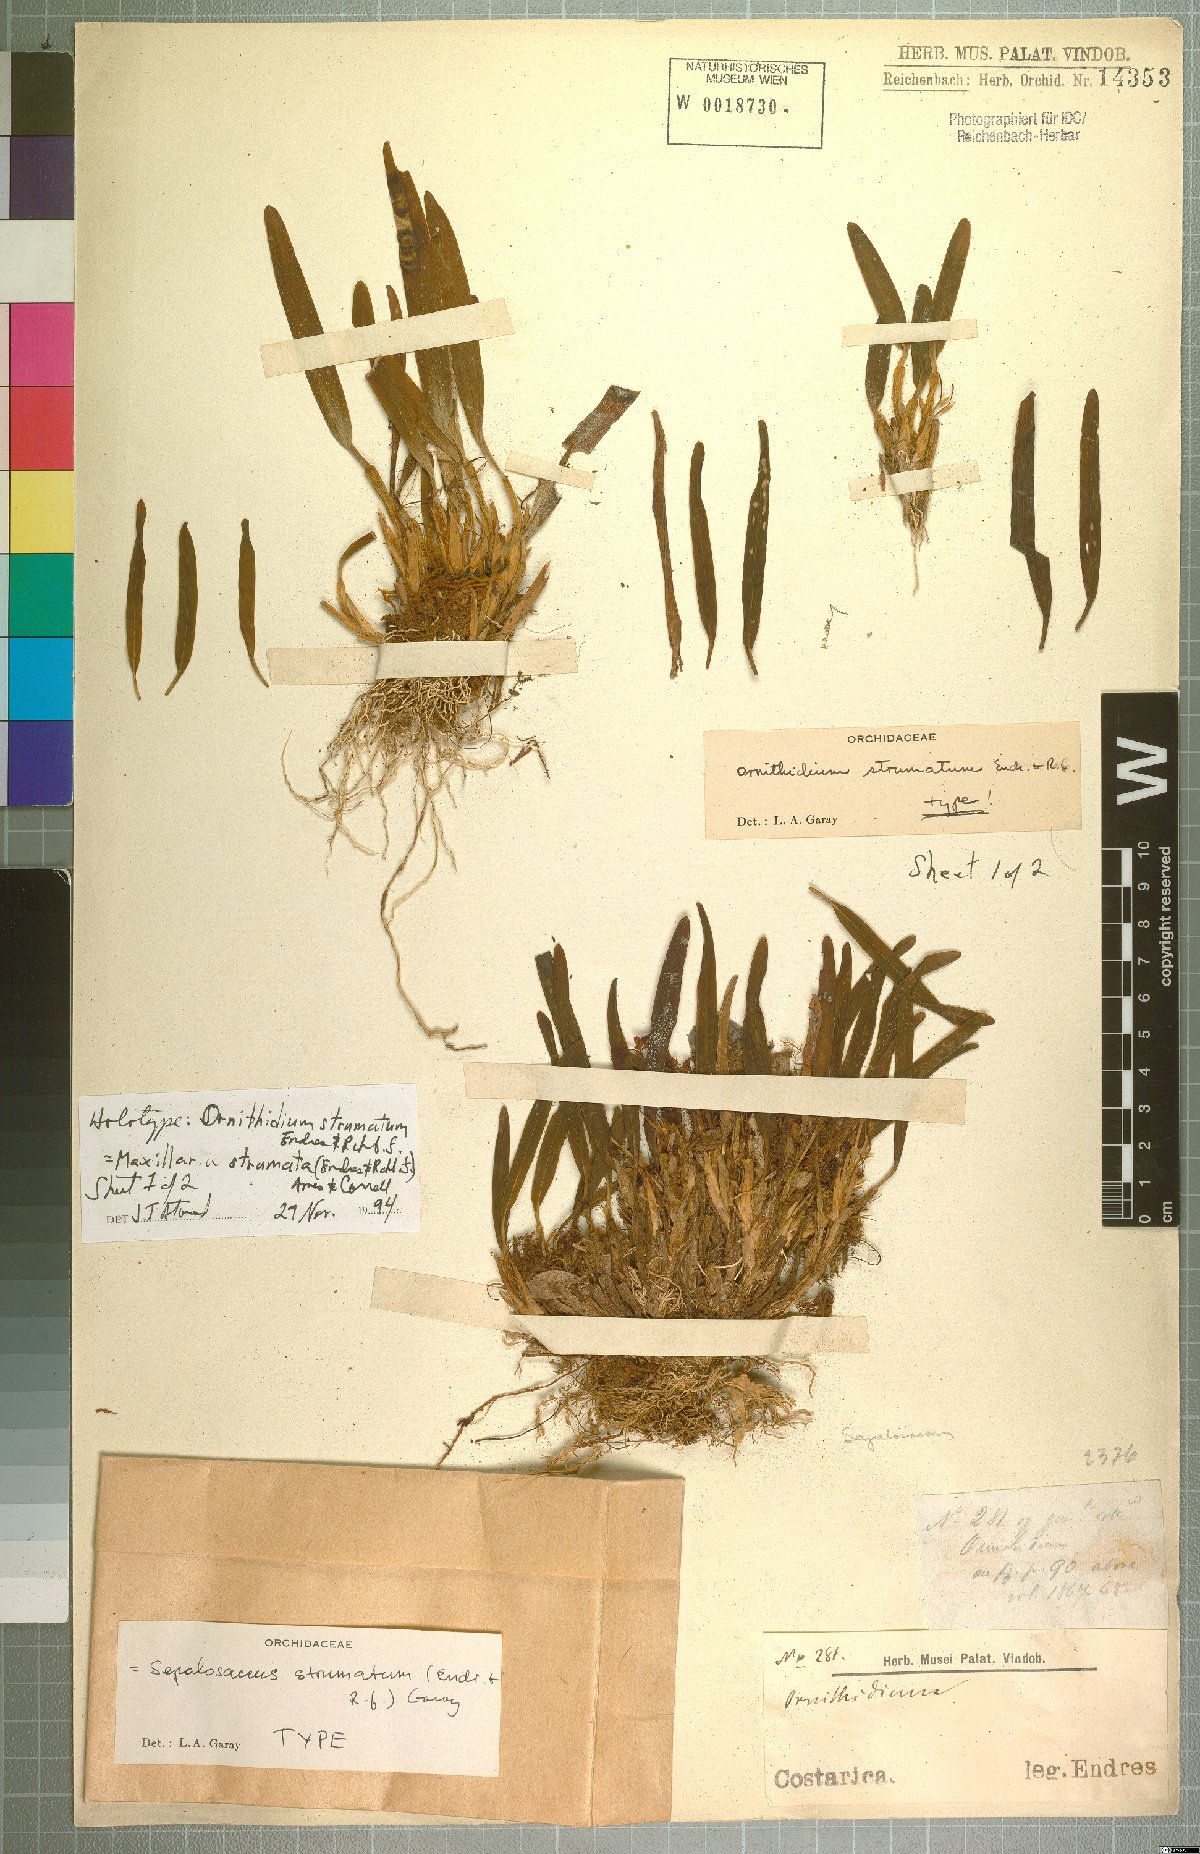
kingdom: Plantae
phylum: Tracheophyta
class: Liliopsida
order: Asparagales
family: Orchidaceae
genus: Maxillaria
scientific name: Maxillaria strumata
